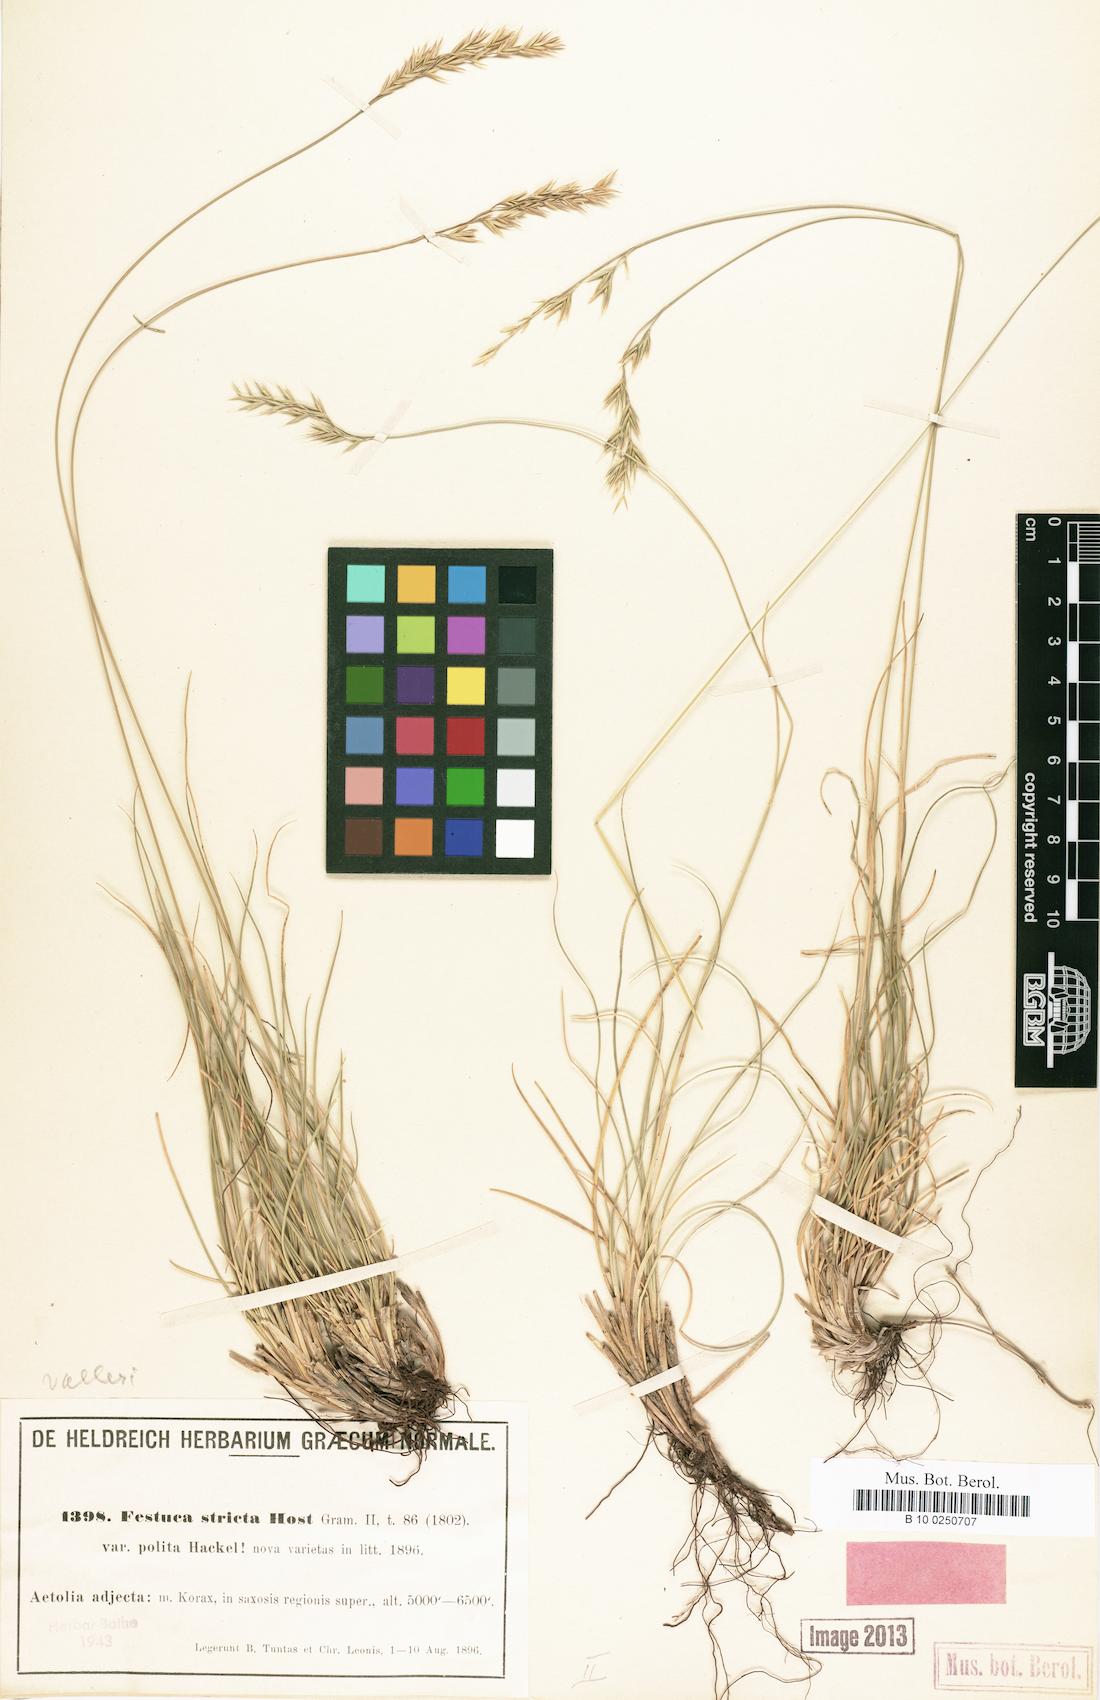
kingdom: Plantae
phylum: Tracheophyta
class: Liliopsida
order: Poales
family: Poaceae
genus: Festuca
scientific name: Festuca polita
